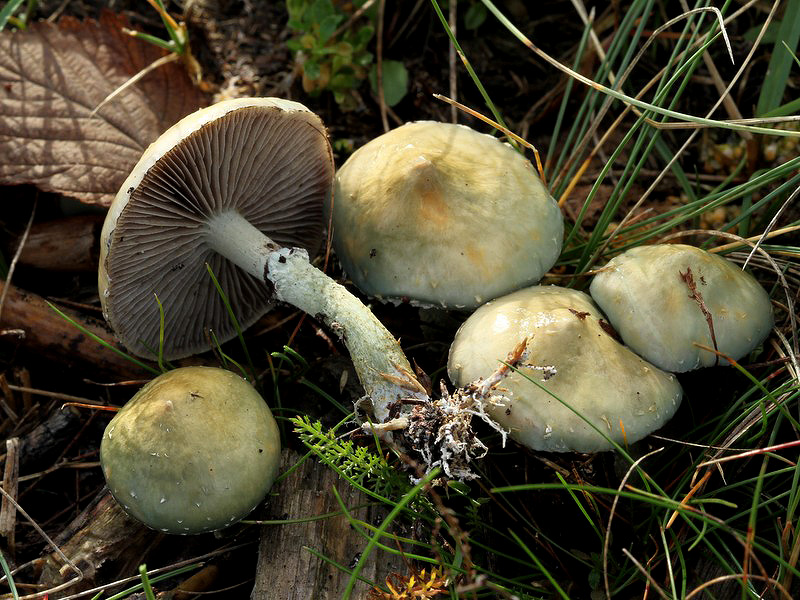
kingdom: Fungi
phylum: Basidiomycota
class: Agaricomycetes
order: Agaricales
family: Strophariaceae
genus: Stropharia
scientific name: Stropharia aeruginosa
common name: spanskgrøn bredblad
